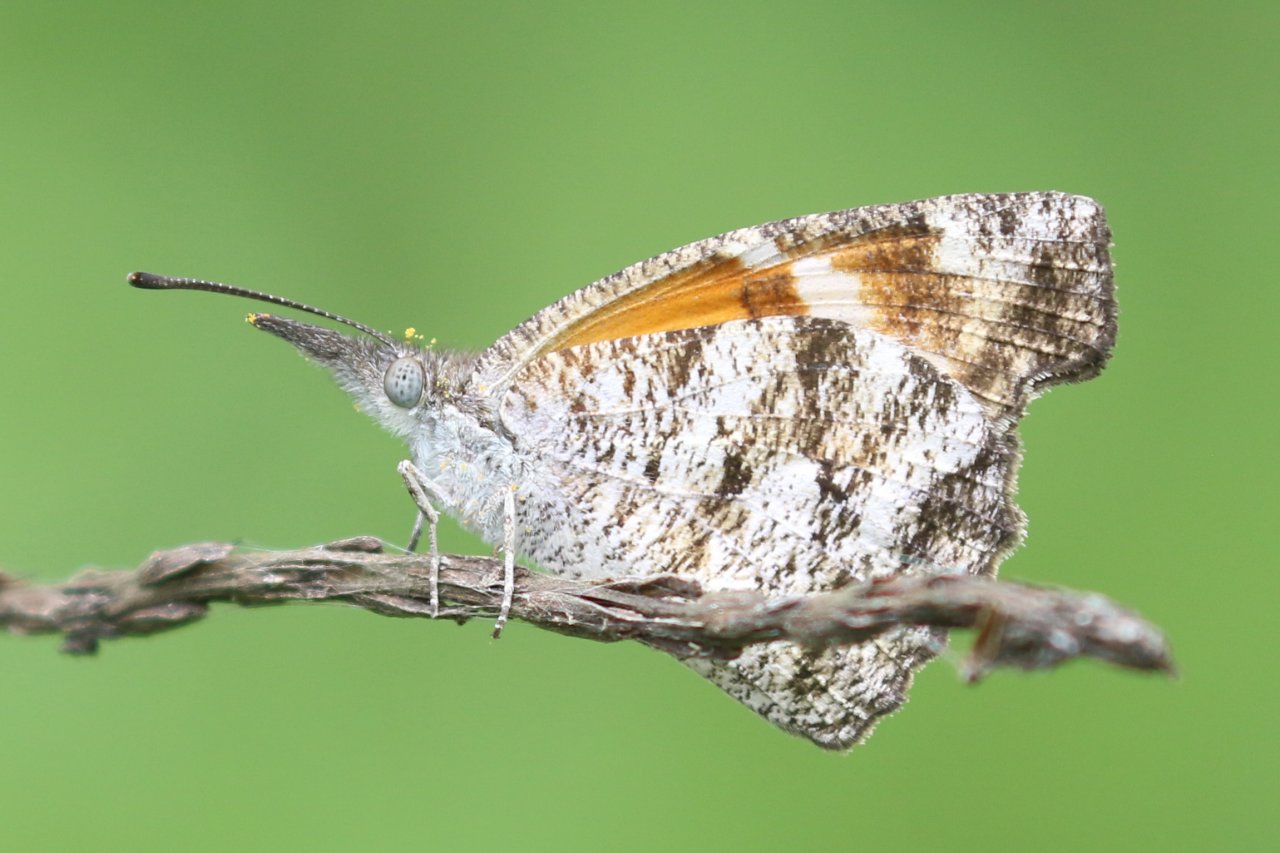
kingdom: Animalia
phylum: Arthropoda
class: Insecta
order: Lepidoptera
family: Nymphalidae
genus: Libytheana
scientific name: Libytheana carinenta
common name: American Snout
